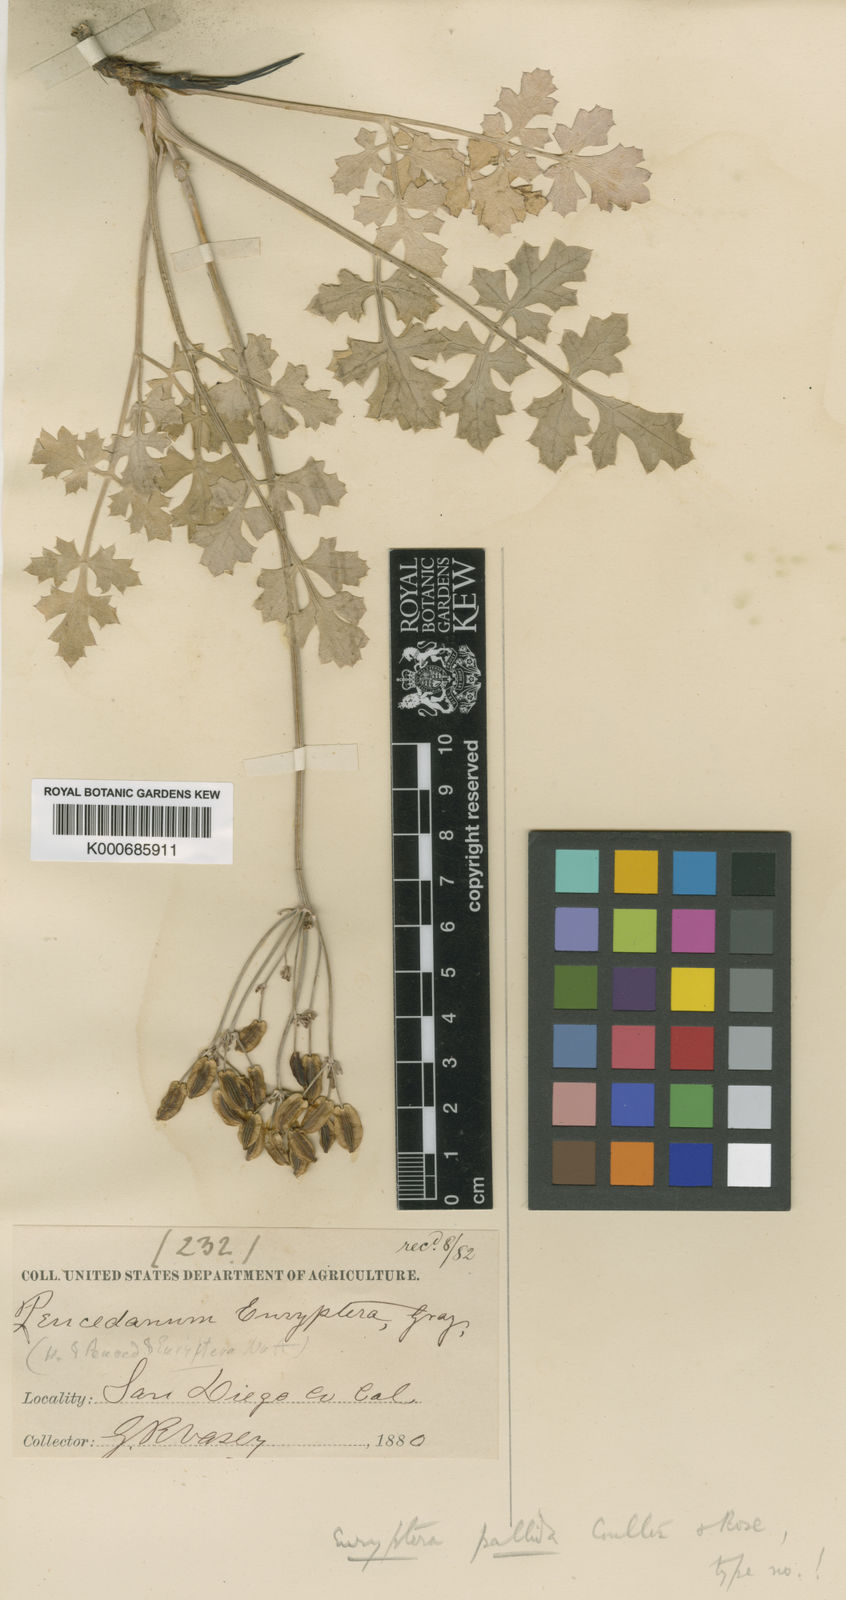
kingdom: Plantae
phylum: Tracheophyta
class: Magnoliopsida
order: Apiales
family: Apiaceae
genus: Lomatium
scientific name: Lomatium parvifolium
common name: Small-leaf lomatium
